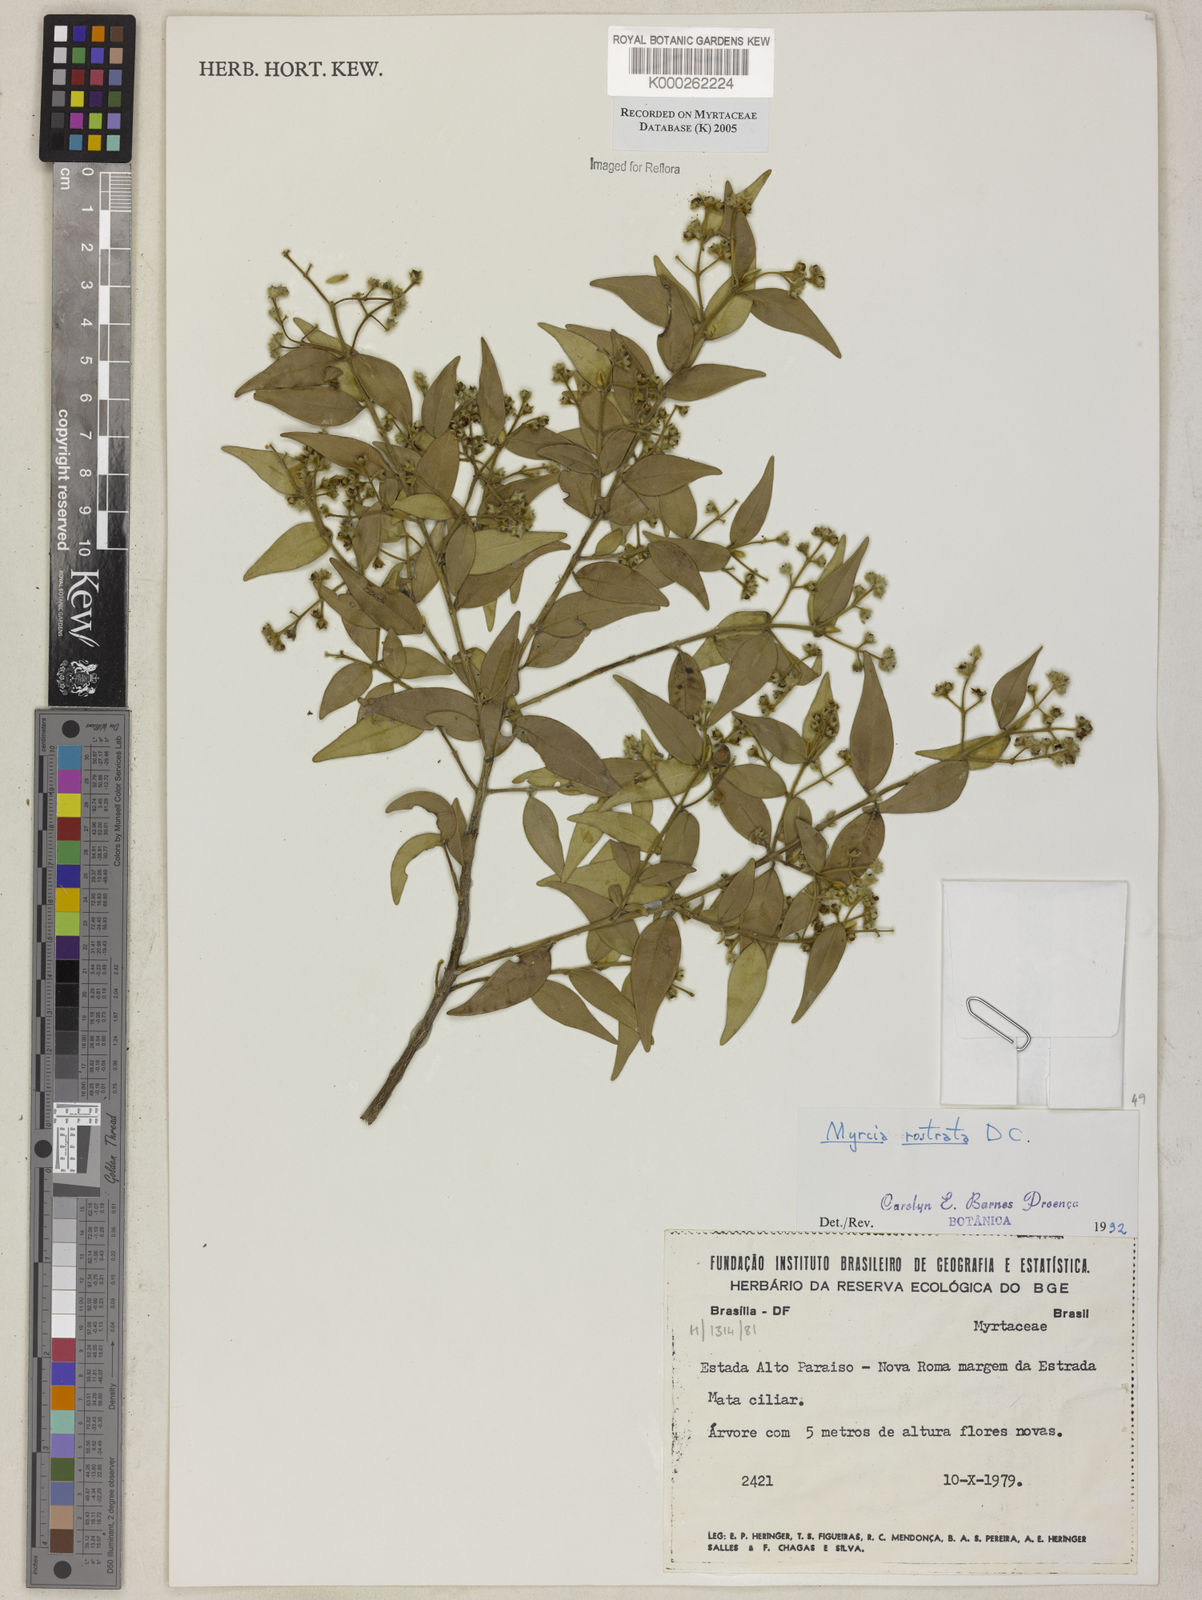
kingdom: Plantae
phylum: Tracheophyta
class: Magnoliopsida
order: Myrtales
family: Myrtaceae
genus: Myrcia
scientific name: Myrcia splendens
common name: Surinam cherry
